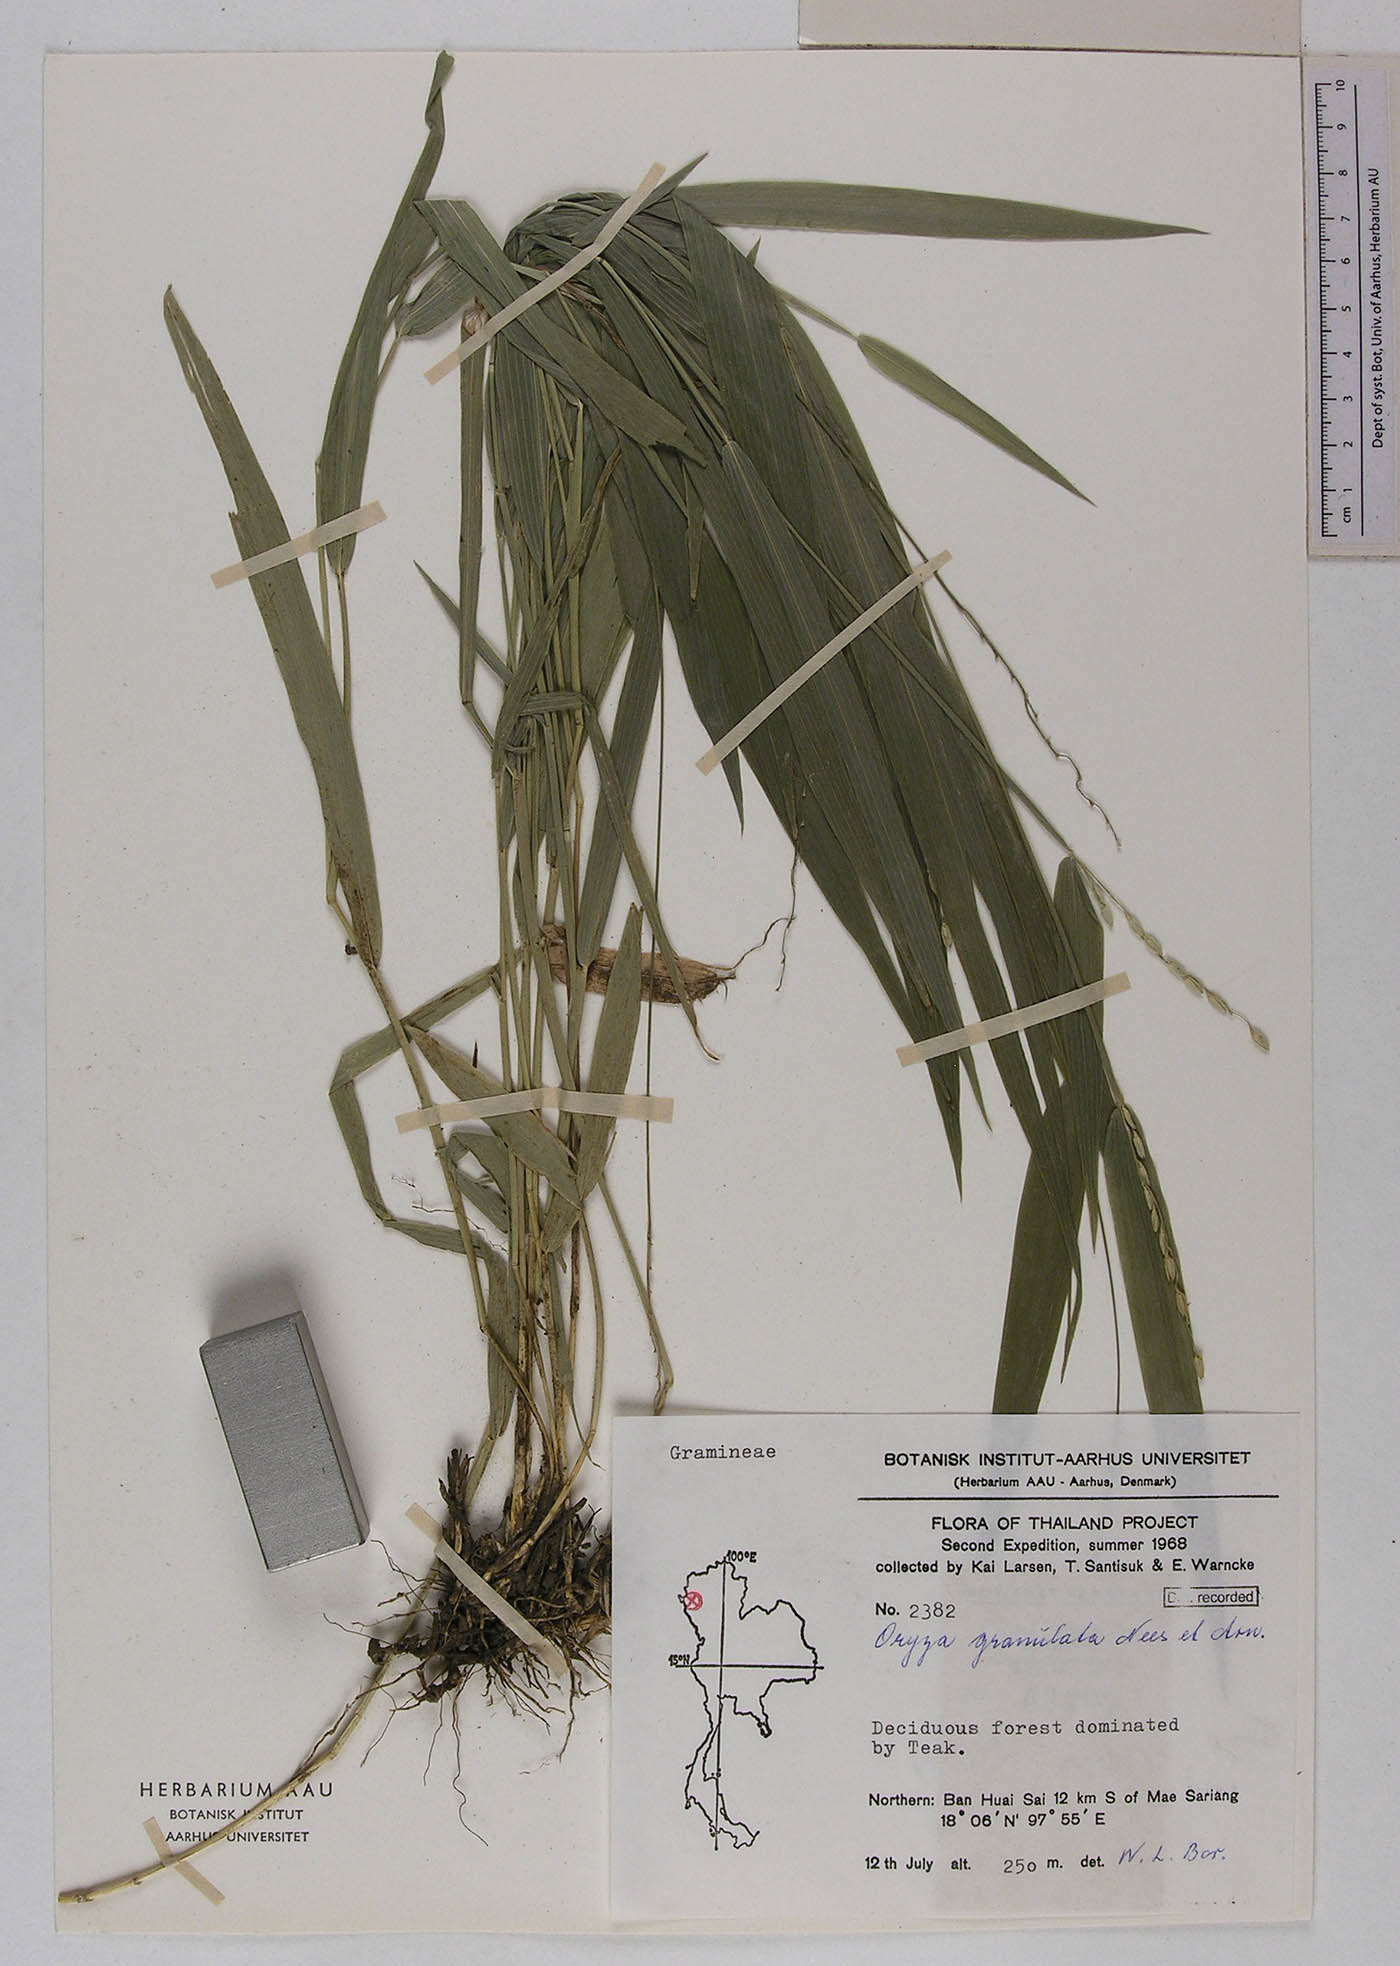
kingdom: Plantae
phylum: Tracheophyta
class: Liliopsida
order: Poales
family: Poaceae
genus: Oryza
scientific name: Oryza meyeriana
